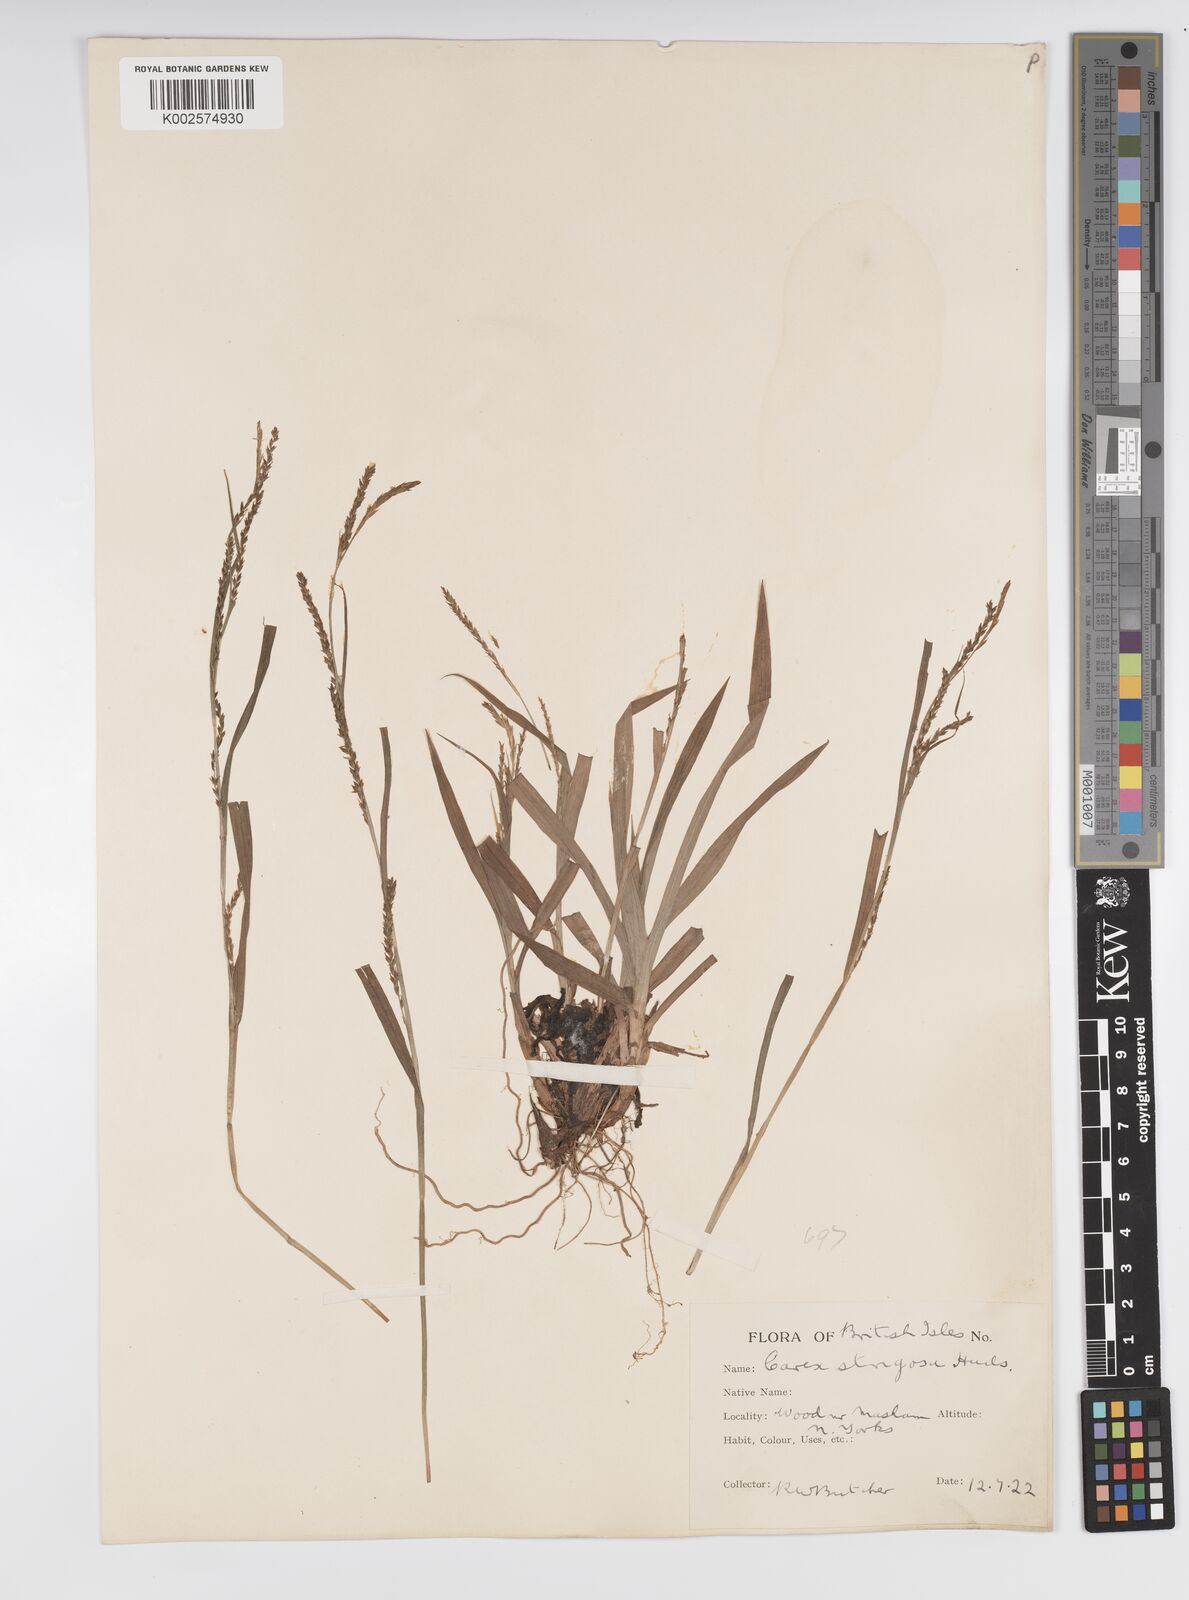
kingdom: Plantae
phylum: Tracheophyta
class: Liliopsida
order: Poales
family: Cyperaceae
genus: Carex
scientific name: Carex strigosa
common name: Thin-spiked wood-sedge
